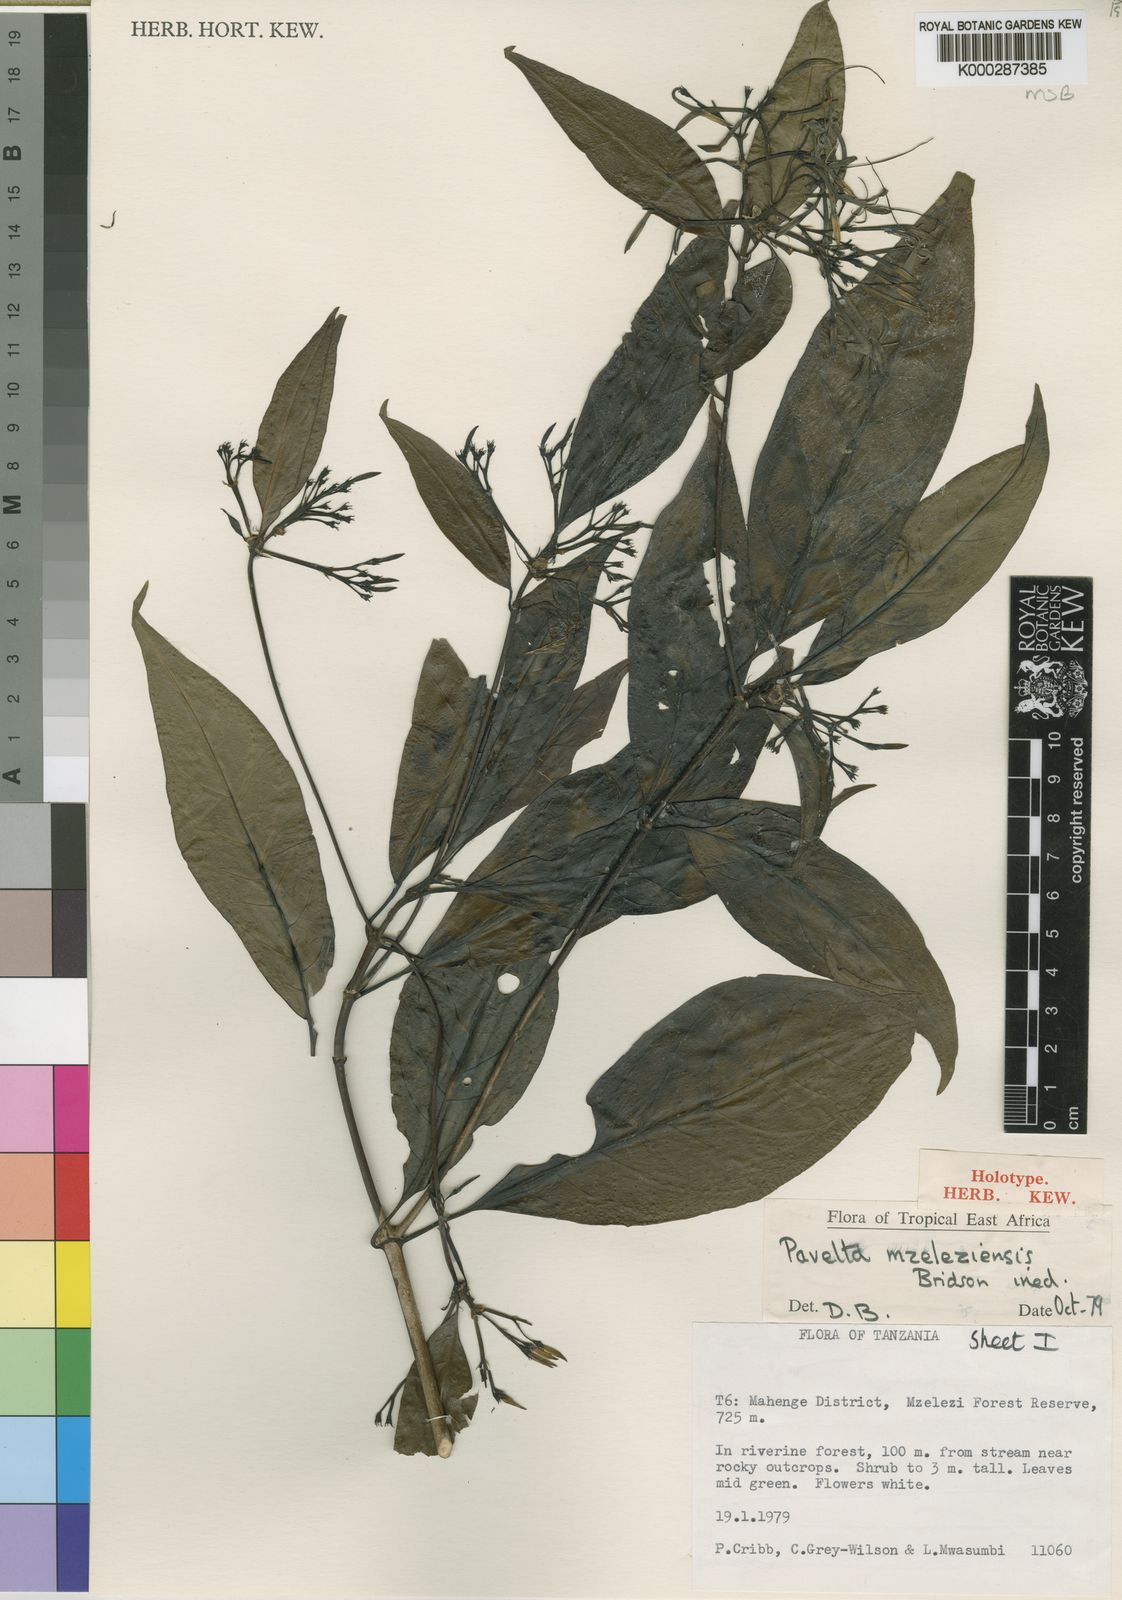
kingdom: Plantae
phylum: Tracheophyta
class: Magnoliopsida
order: Gentianales
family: Rubiaceae
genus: Pavetta
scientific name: Pavetta mzeleziensis
